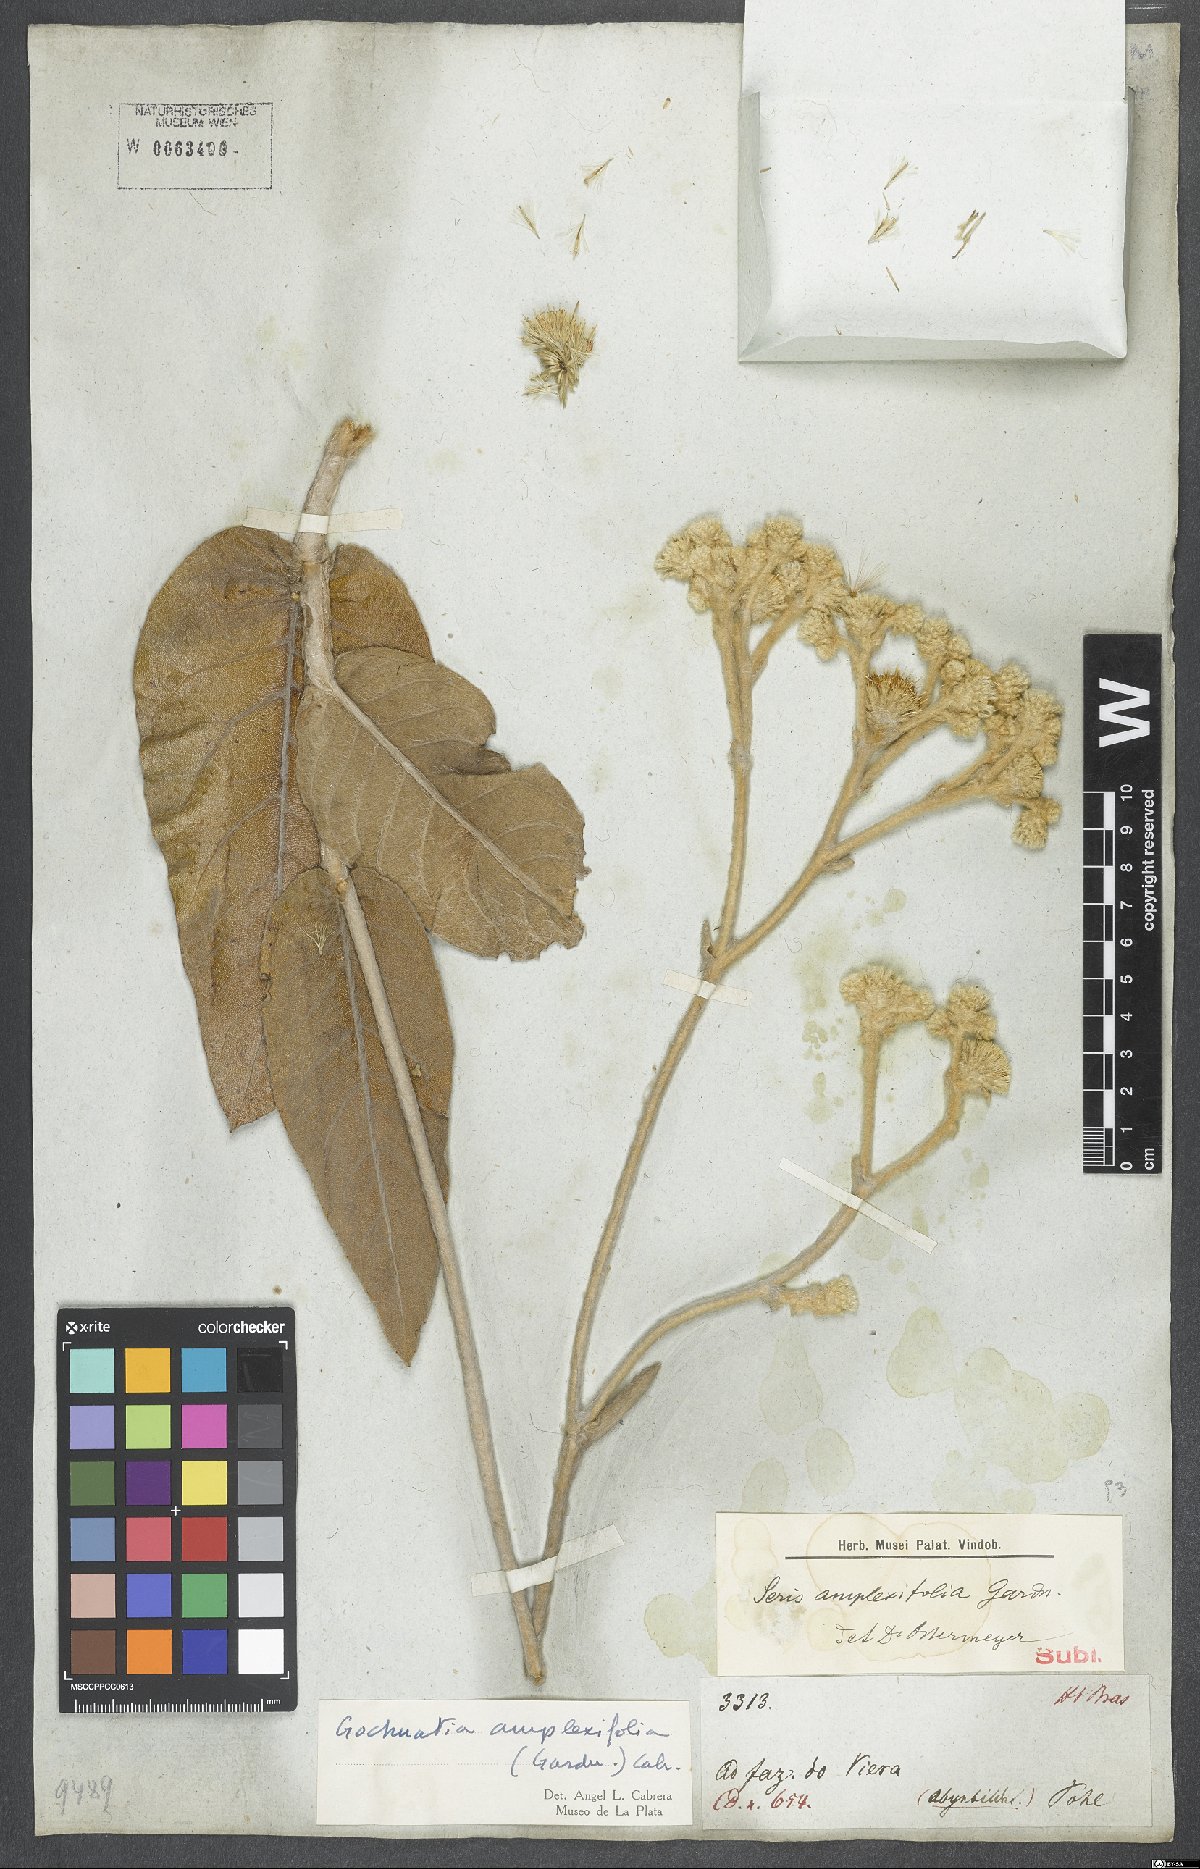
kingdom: Plantae
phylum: Tracheophyta
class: Magnoliopsida
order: Asterales
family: Asteraceae
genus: Richterago
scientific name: Richterago amplexifolia
